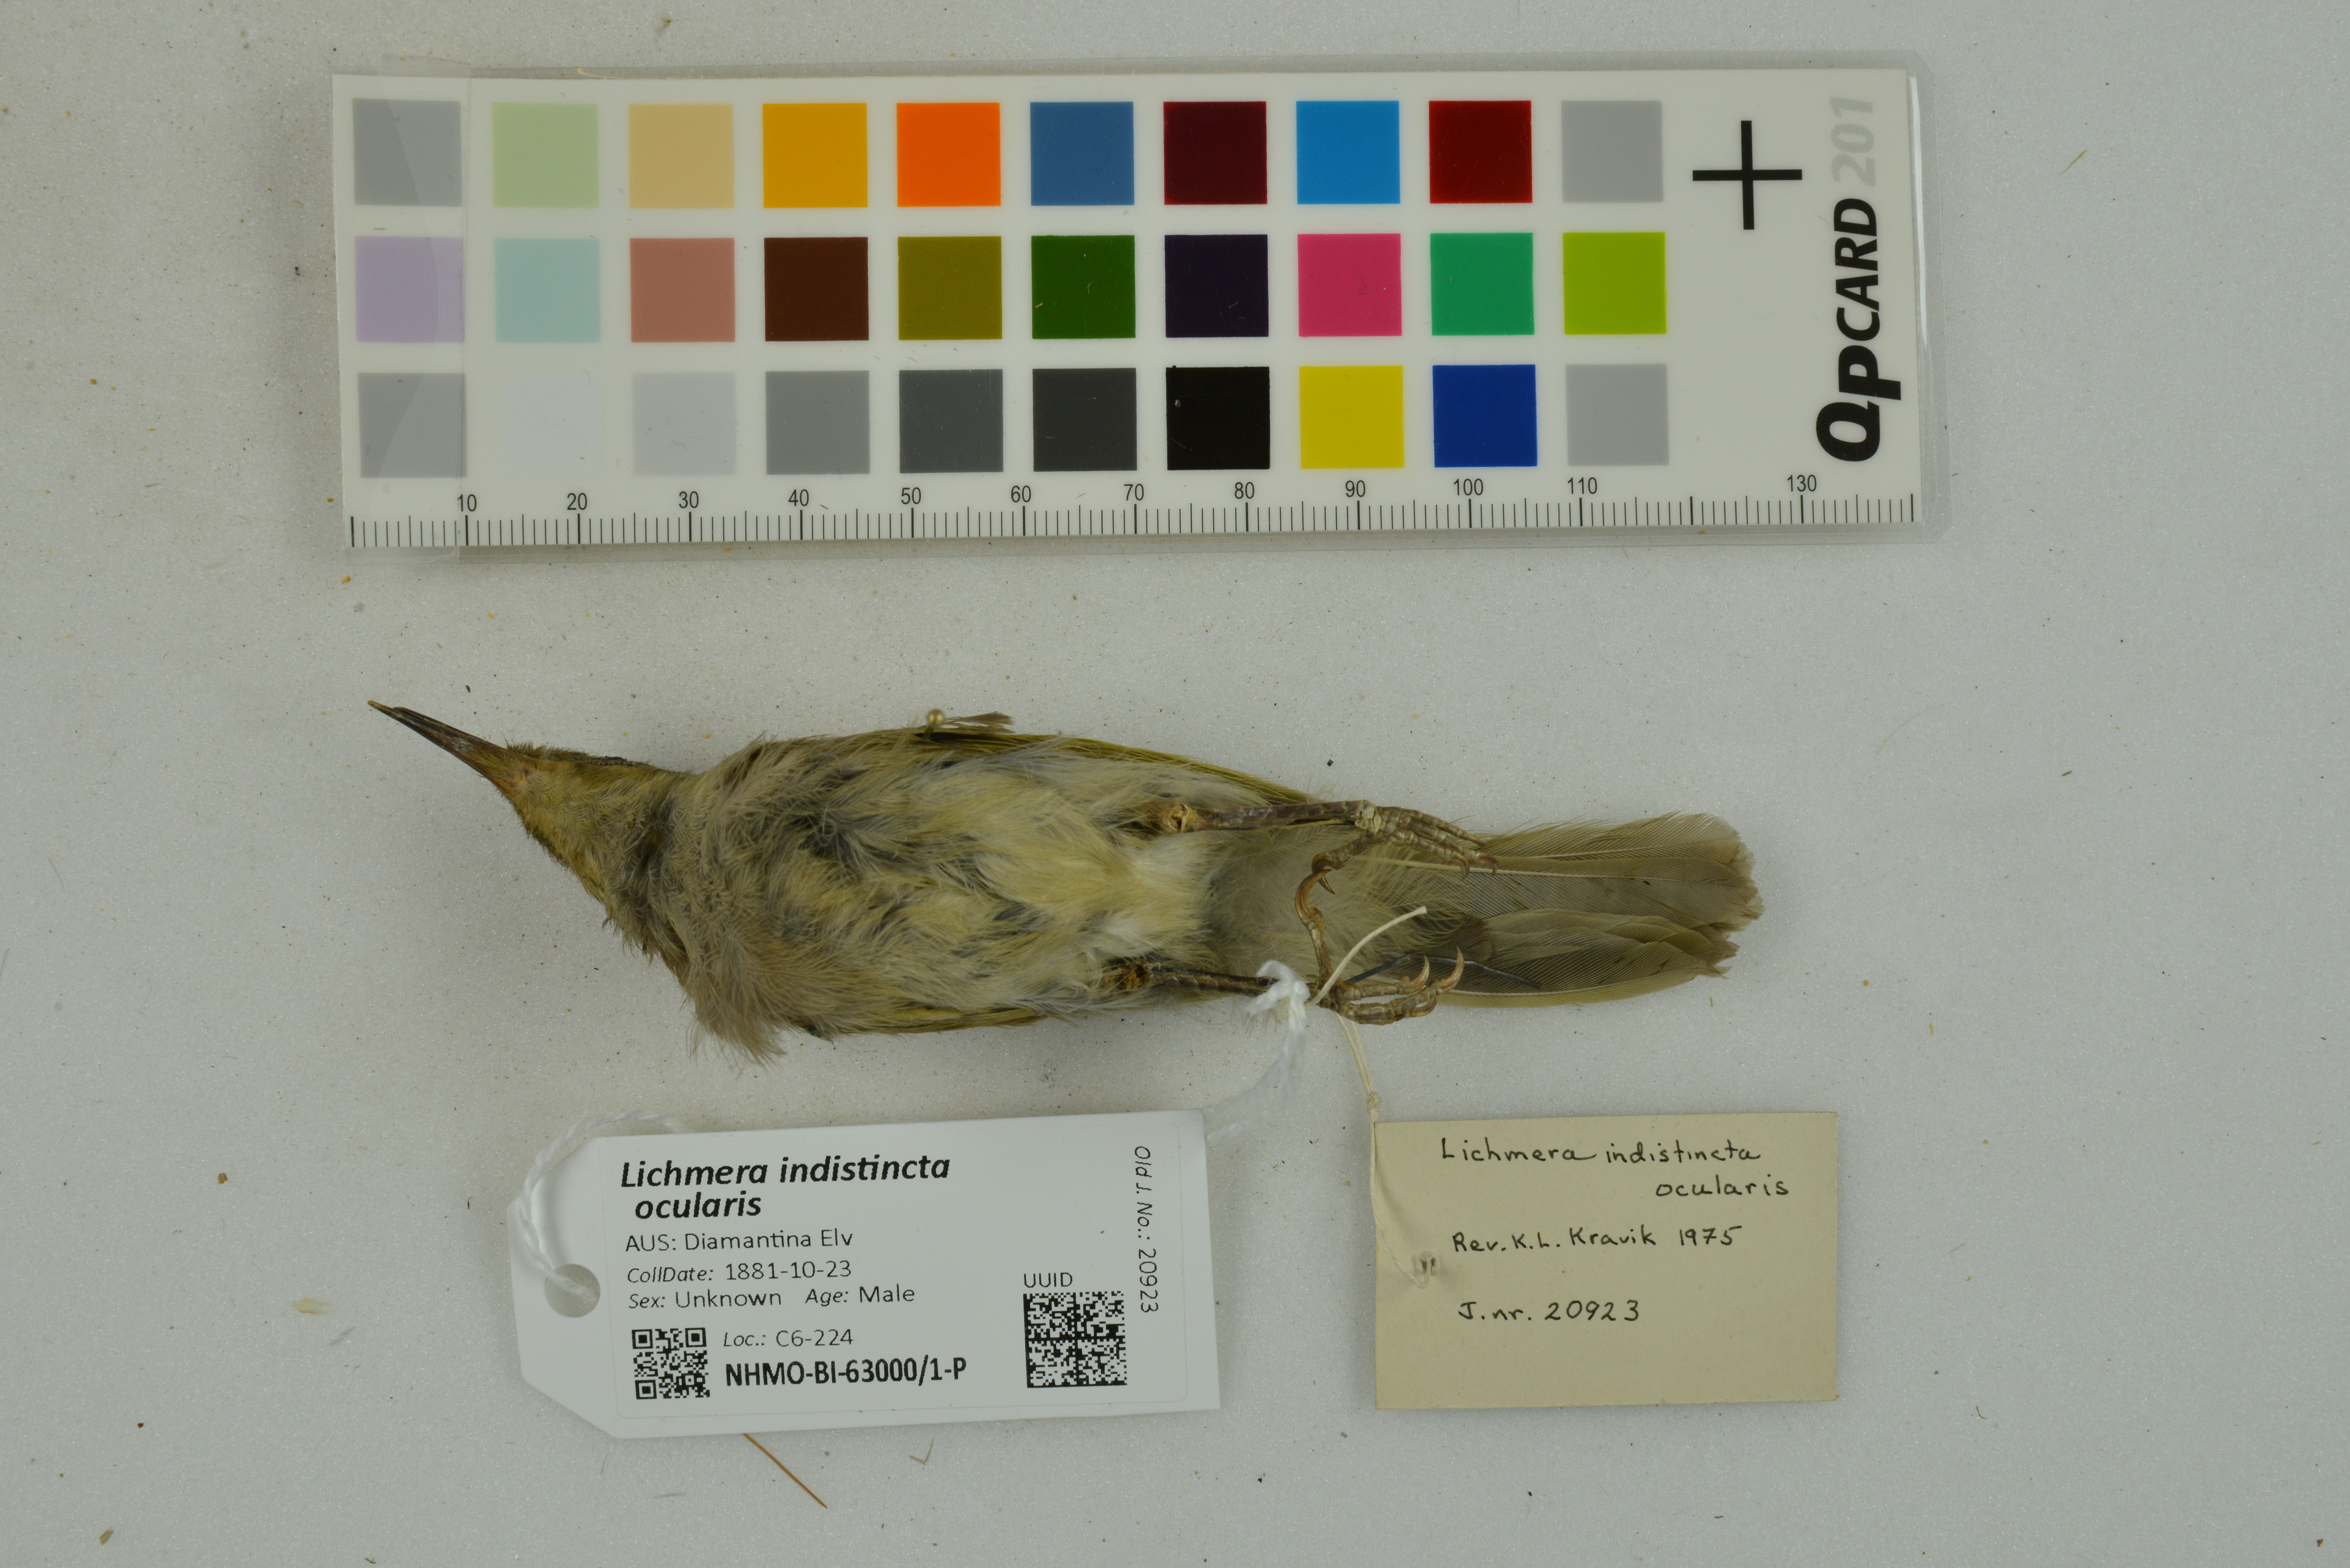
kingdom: Animalia
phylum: Chordata
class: Aves
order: Passeriformes
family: Meliphagidae
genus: Lichmera
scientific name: Lichmera indistincta
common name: Brown honeyeater
